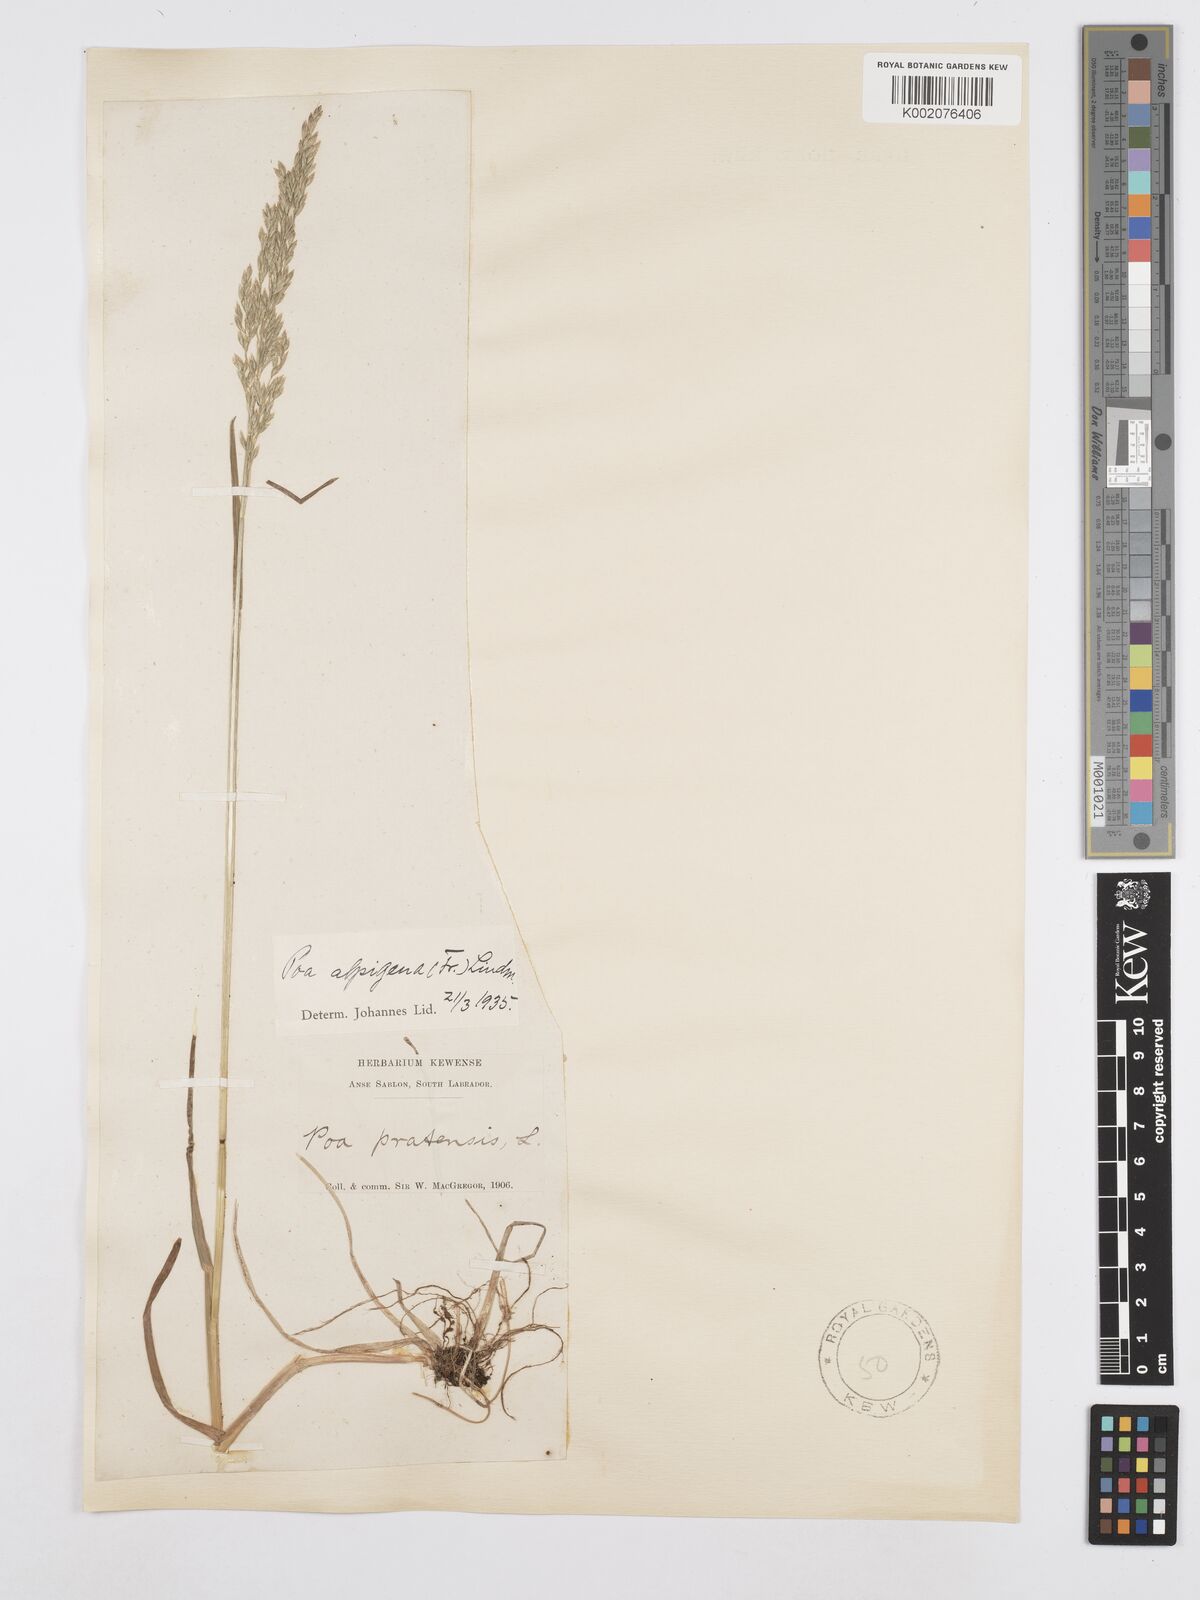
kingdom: Plantae
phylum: Tracheophyta
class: Liliopsida
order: Poales
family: Poaceae
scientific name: Poaceae
